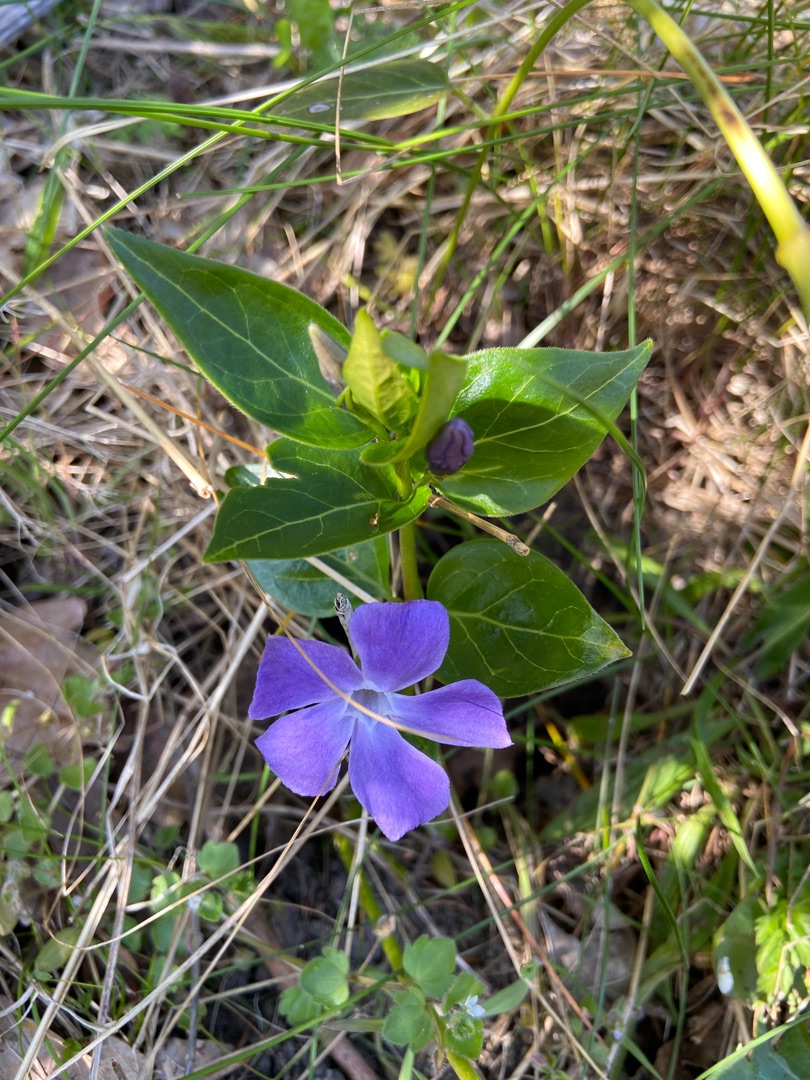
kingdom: Plantae
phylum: Tracheophyta
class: Magnoliopsida
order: Gentianales
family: Apocynaceae
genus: Vinca
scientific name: Vinca major
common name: Stor singrøn
